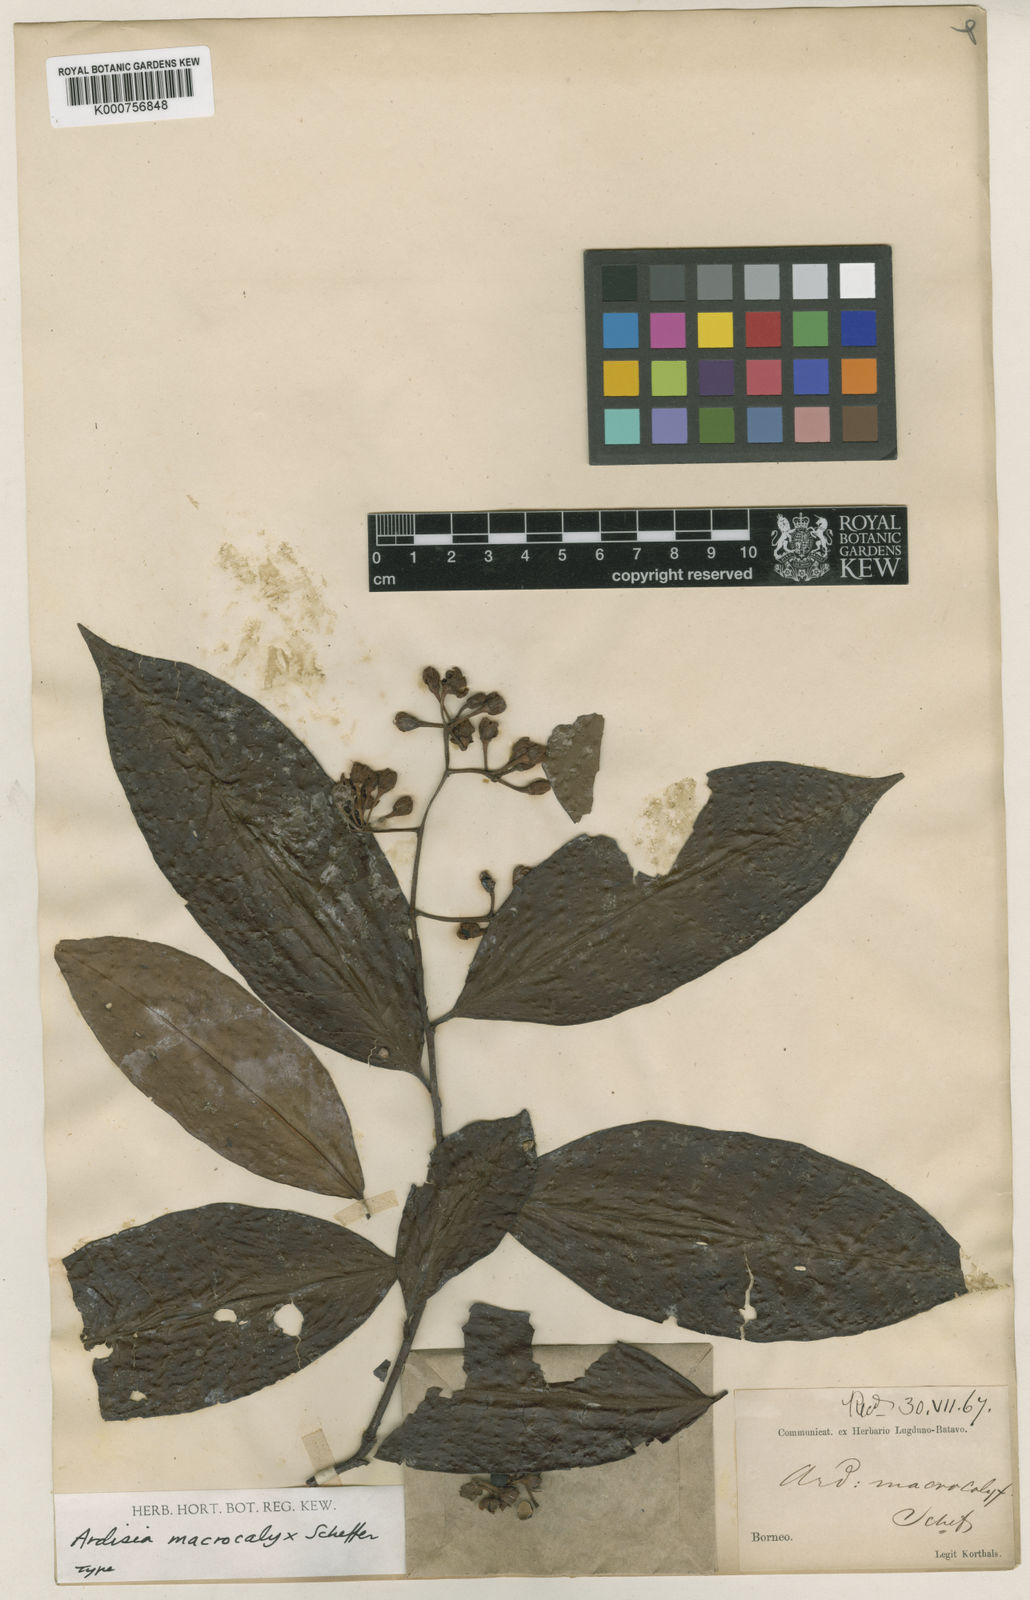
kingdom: Plantae
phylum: Tracheophyta
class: Magnoliopsida
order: Ericales
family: Primulaceae
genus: Ardisia
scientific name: Ardisia macrocalyx
